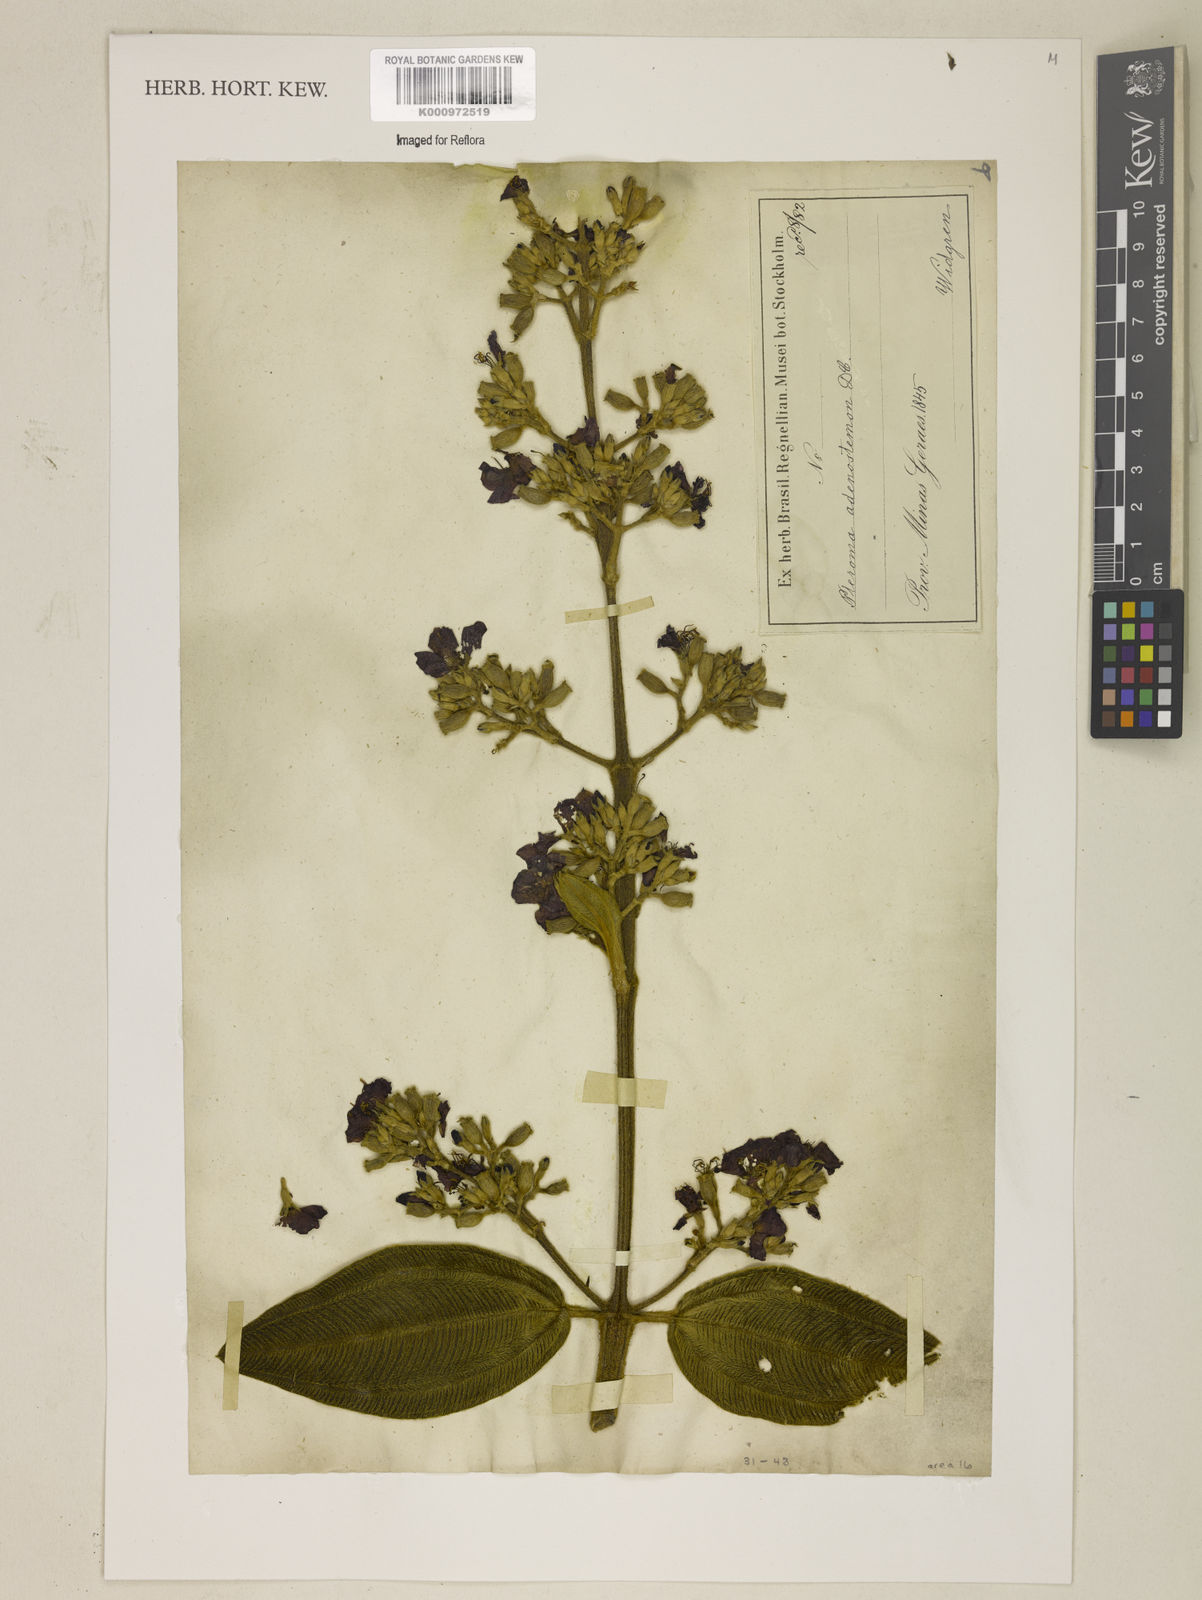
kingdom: Plantae
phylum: Tracheophyta
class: Magnoliopsida
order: Myrtales
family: Melastomataceae
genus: Pleroma
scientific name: Pleroma heteromallum
